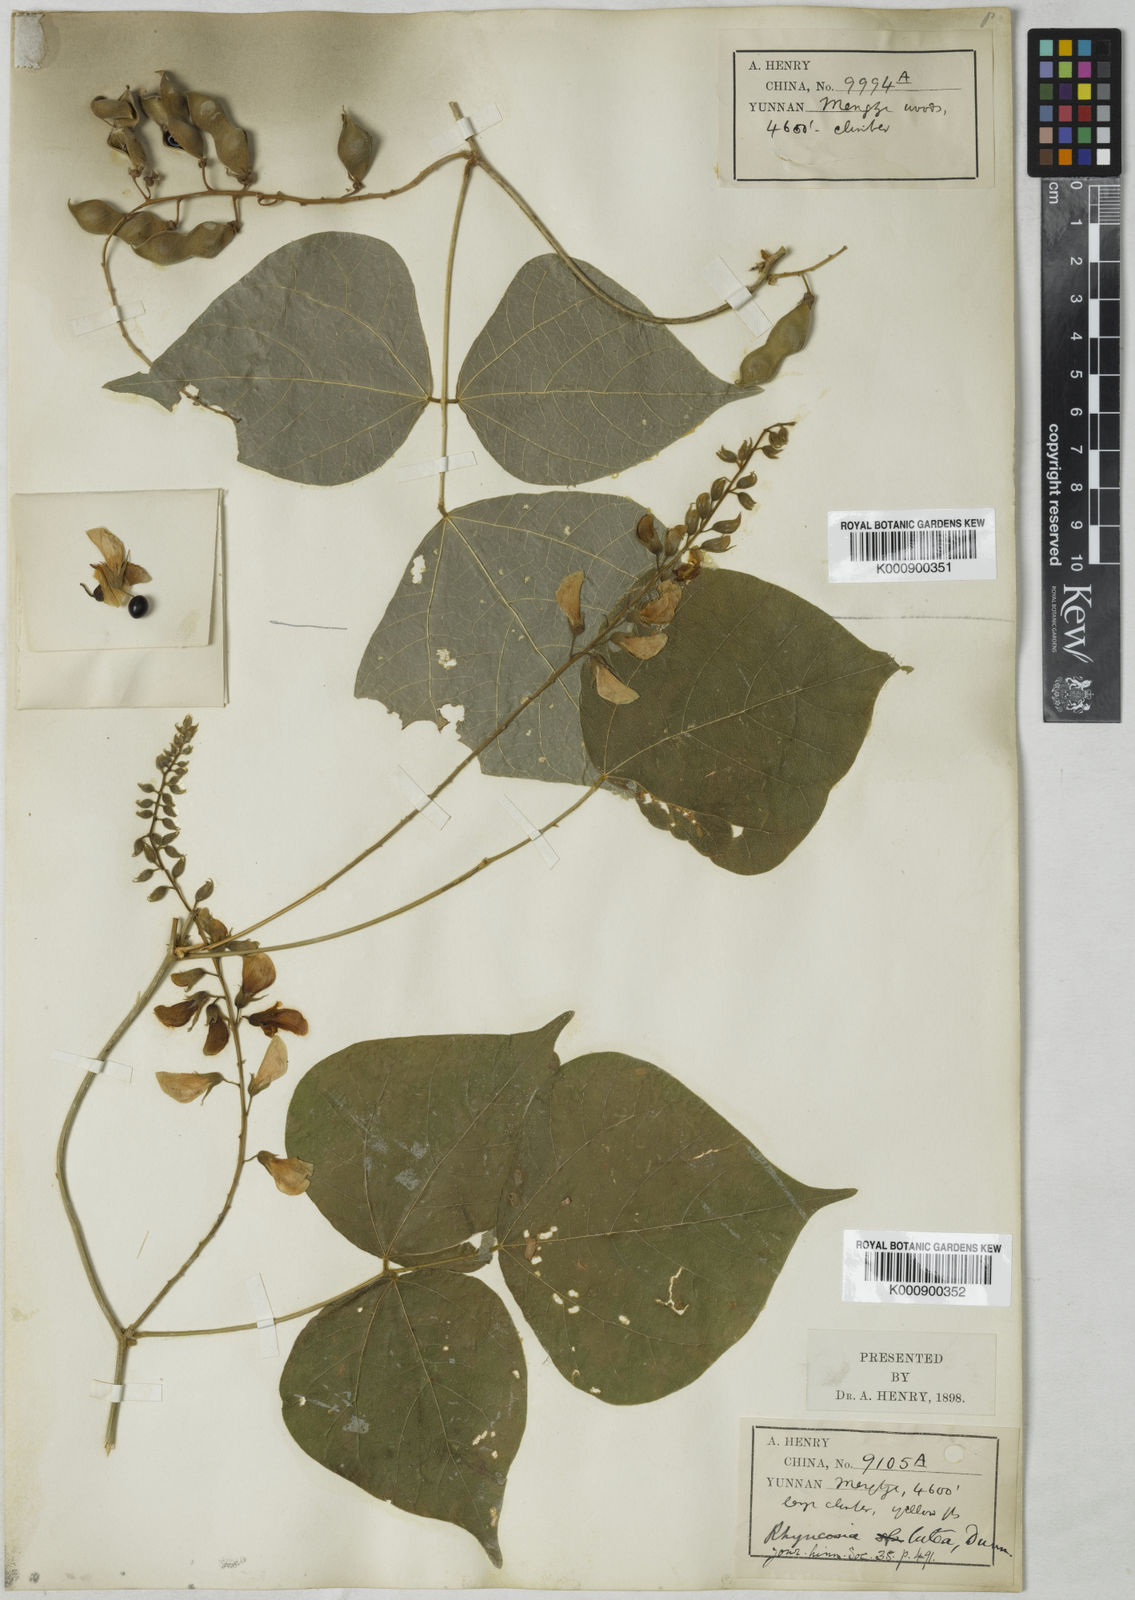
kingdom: Plantae
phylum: Tracheophyta
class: Magnoliopsida
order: Fabales
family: Fabaceae
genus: Rhynchosia
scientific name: Rhynchosia lutea
